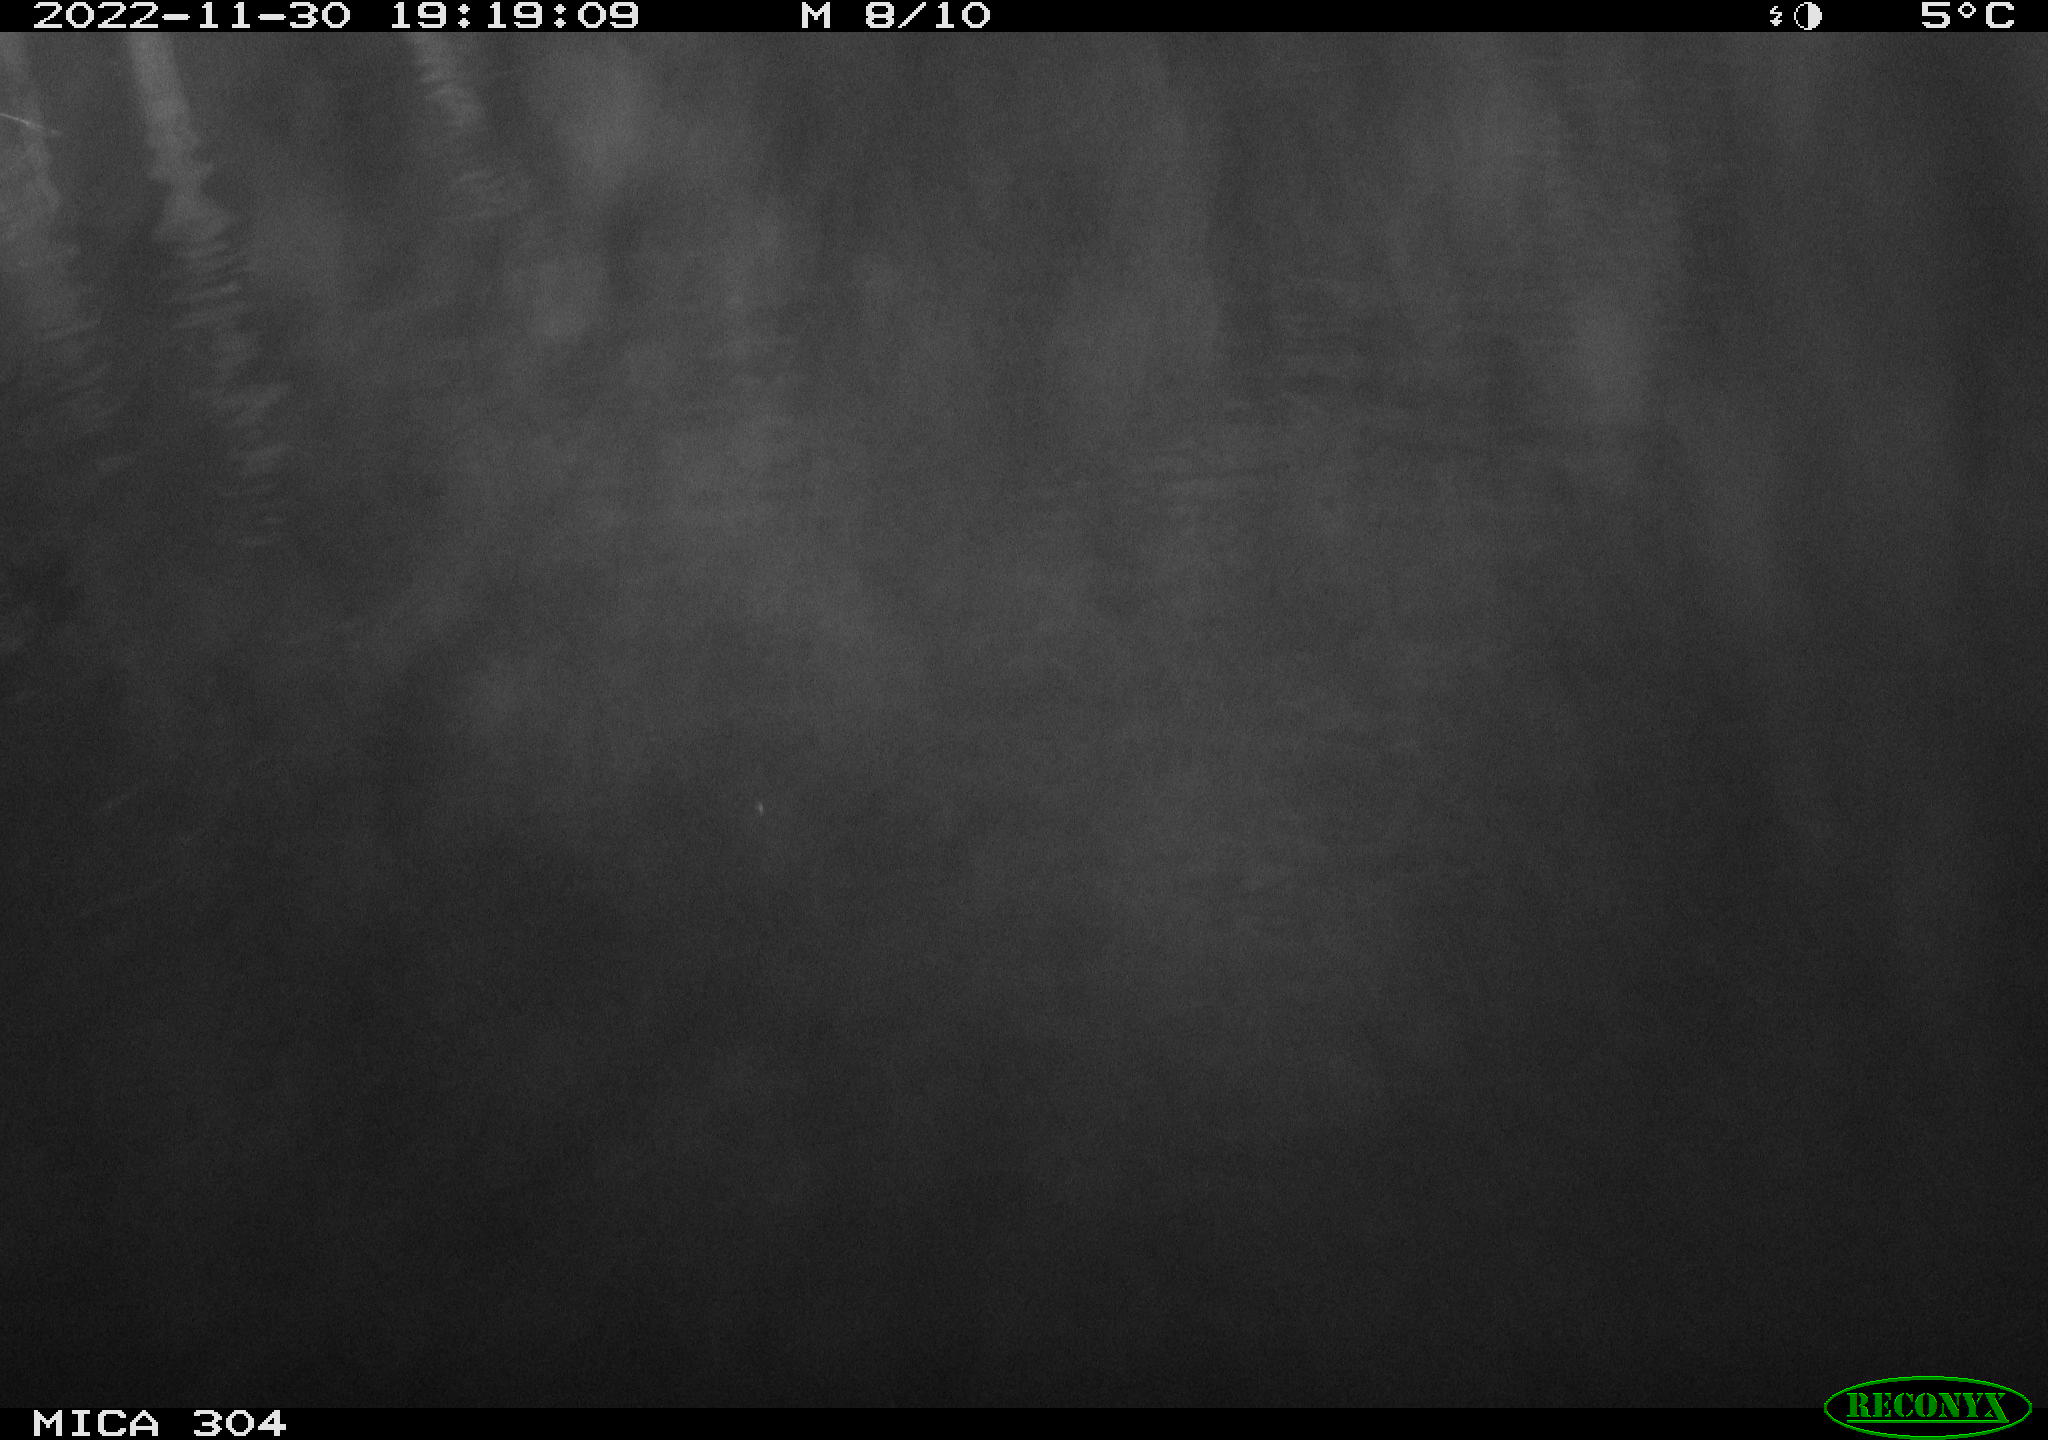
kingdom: Animalia
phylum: Chordata
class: Mammalia
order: Rodentia
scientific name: Rodentia
